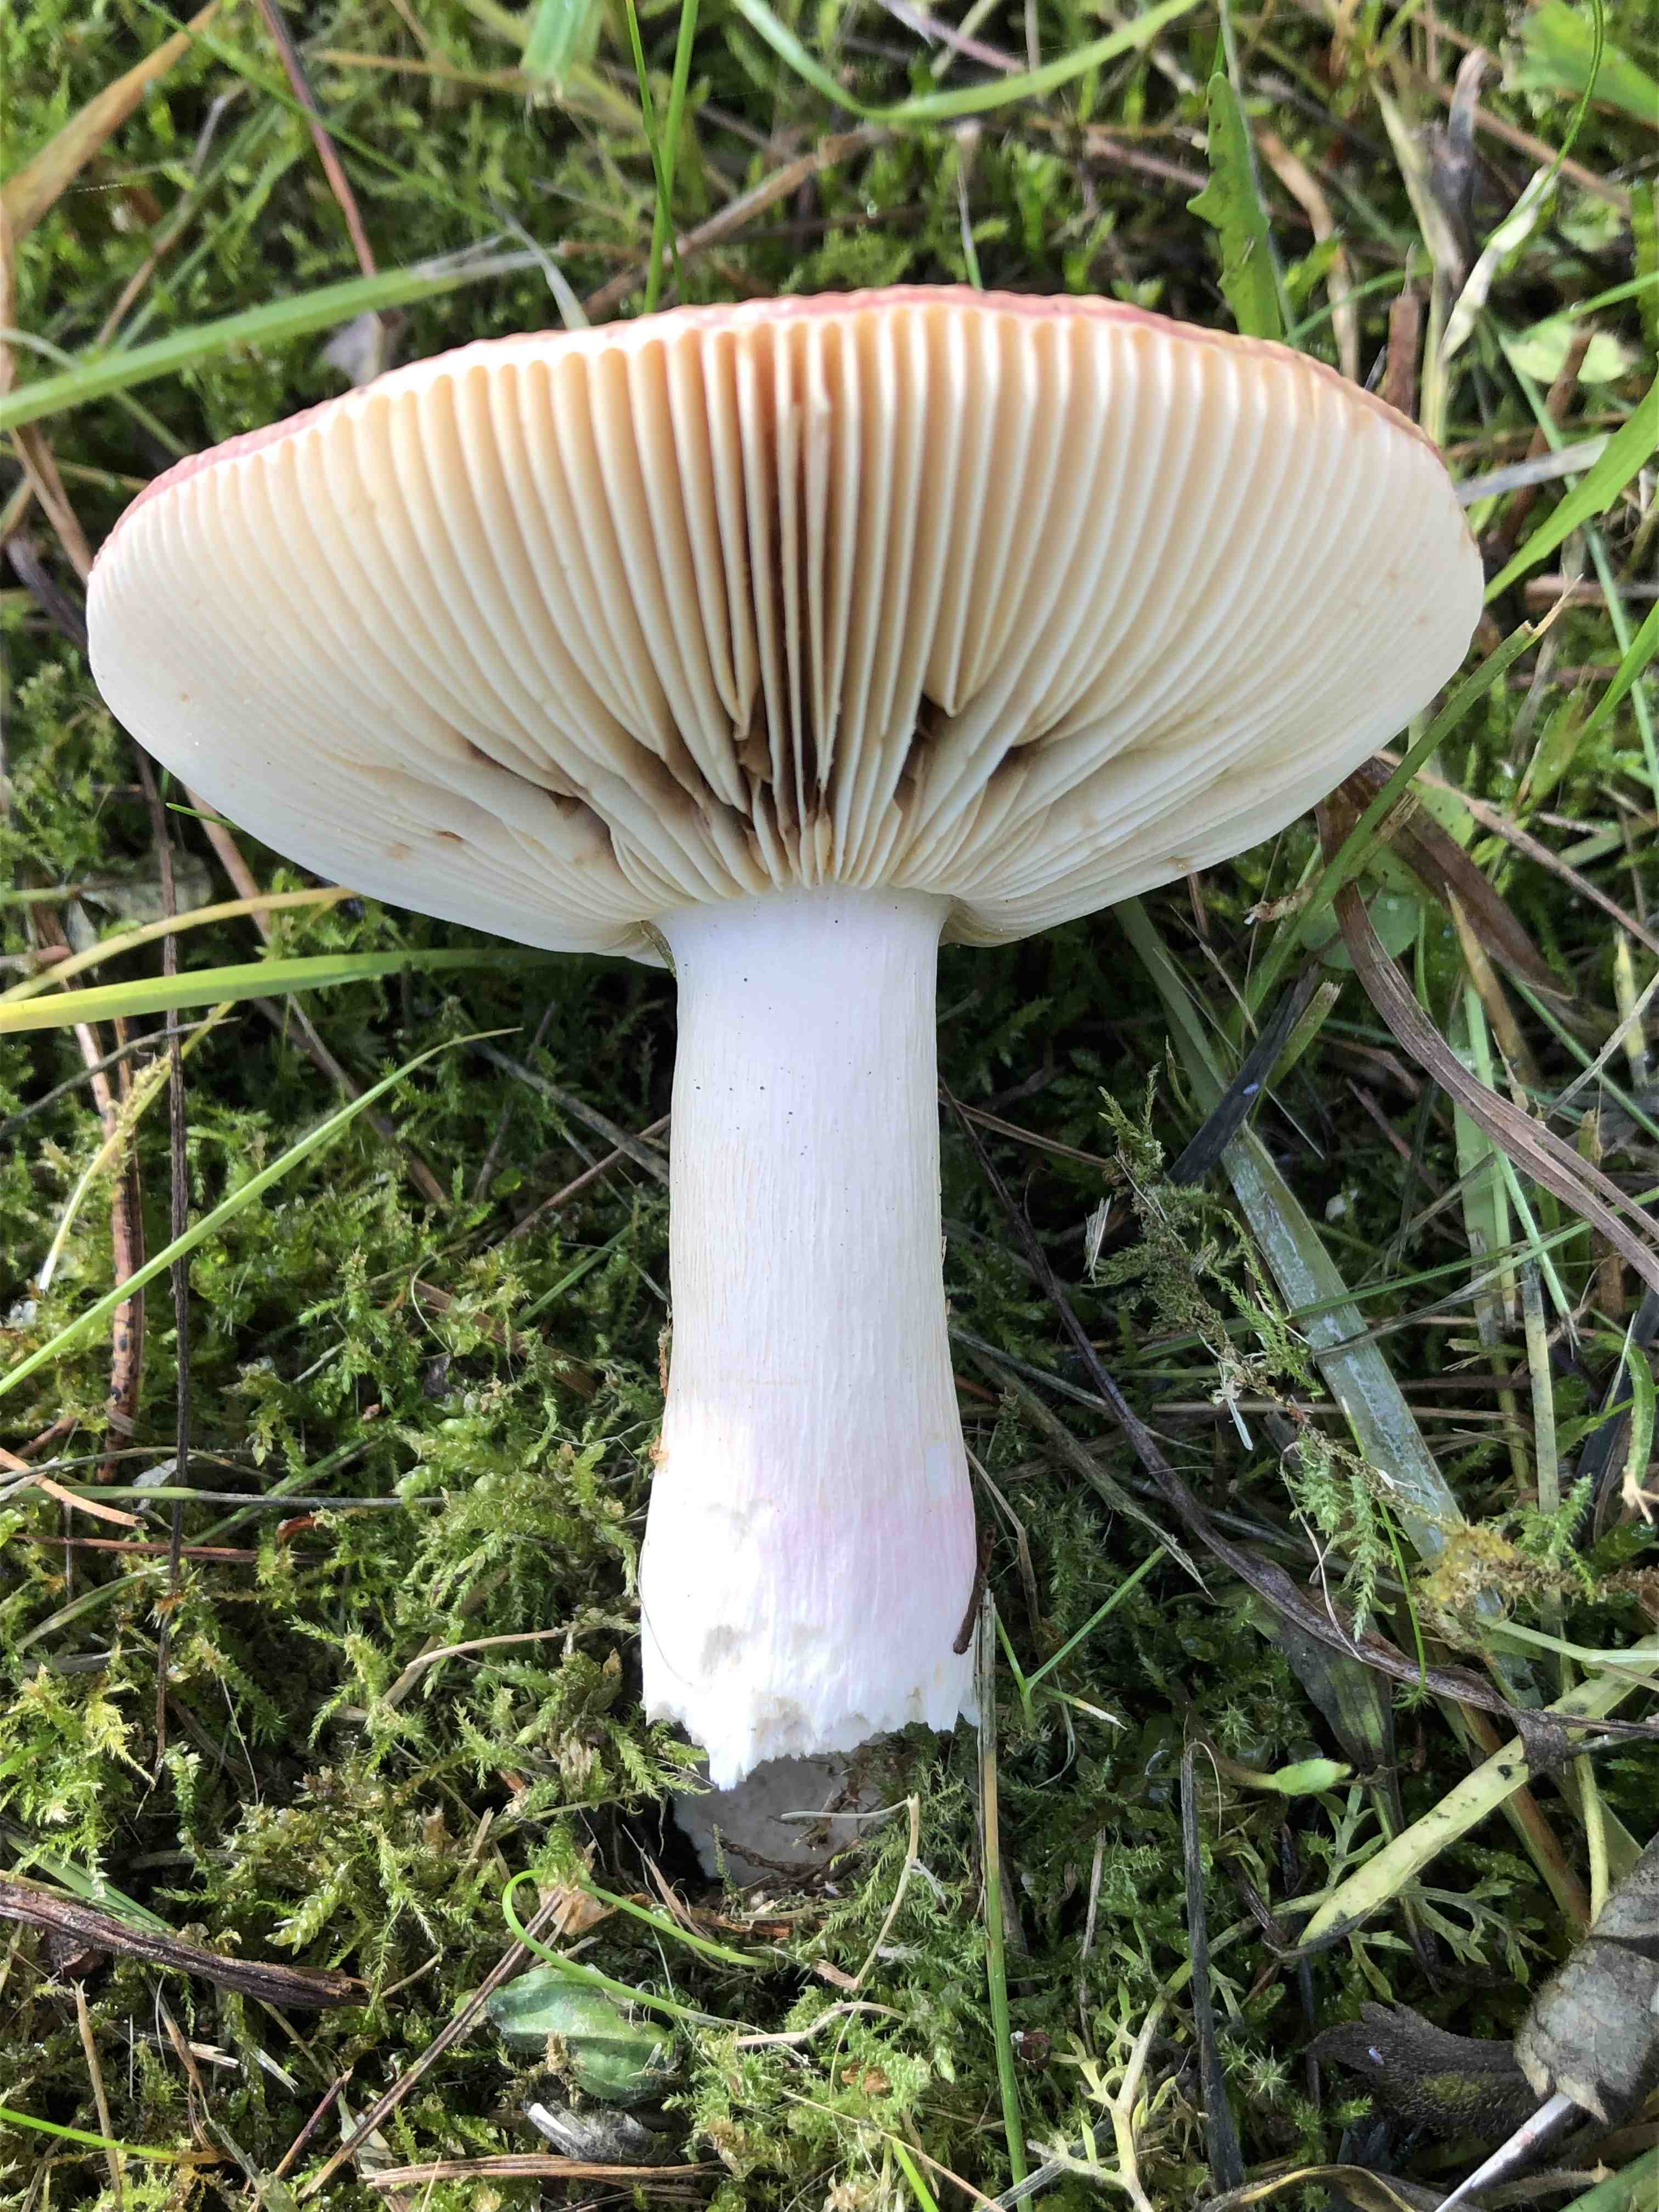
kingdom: Fungi
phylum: Basidiomycota
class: Agaricomycetes
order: Russulales
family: Russulaceae
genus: Russula
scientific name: Russula xerampelina
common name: hummer-skørhat
